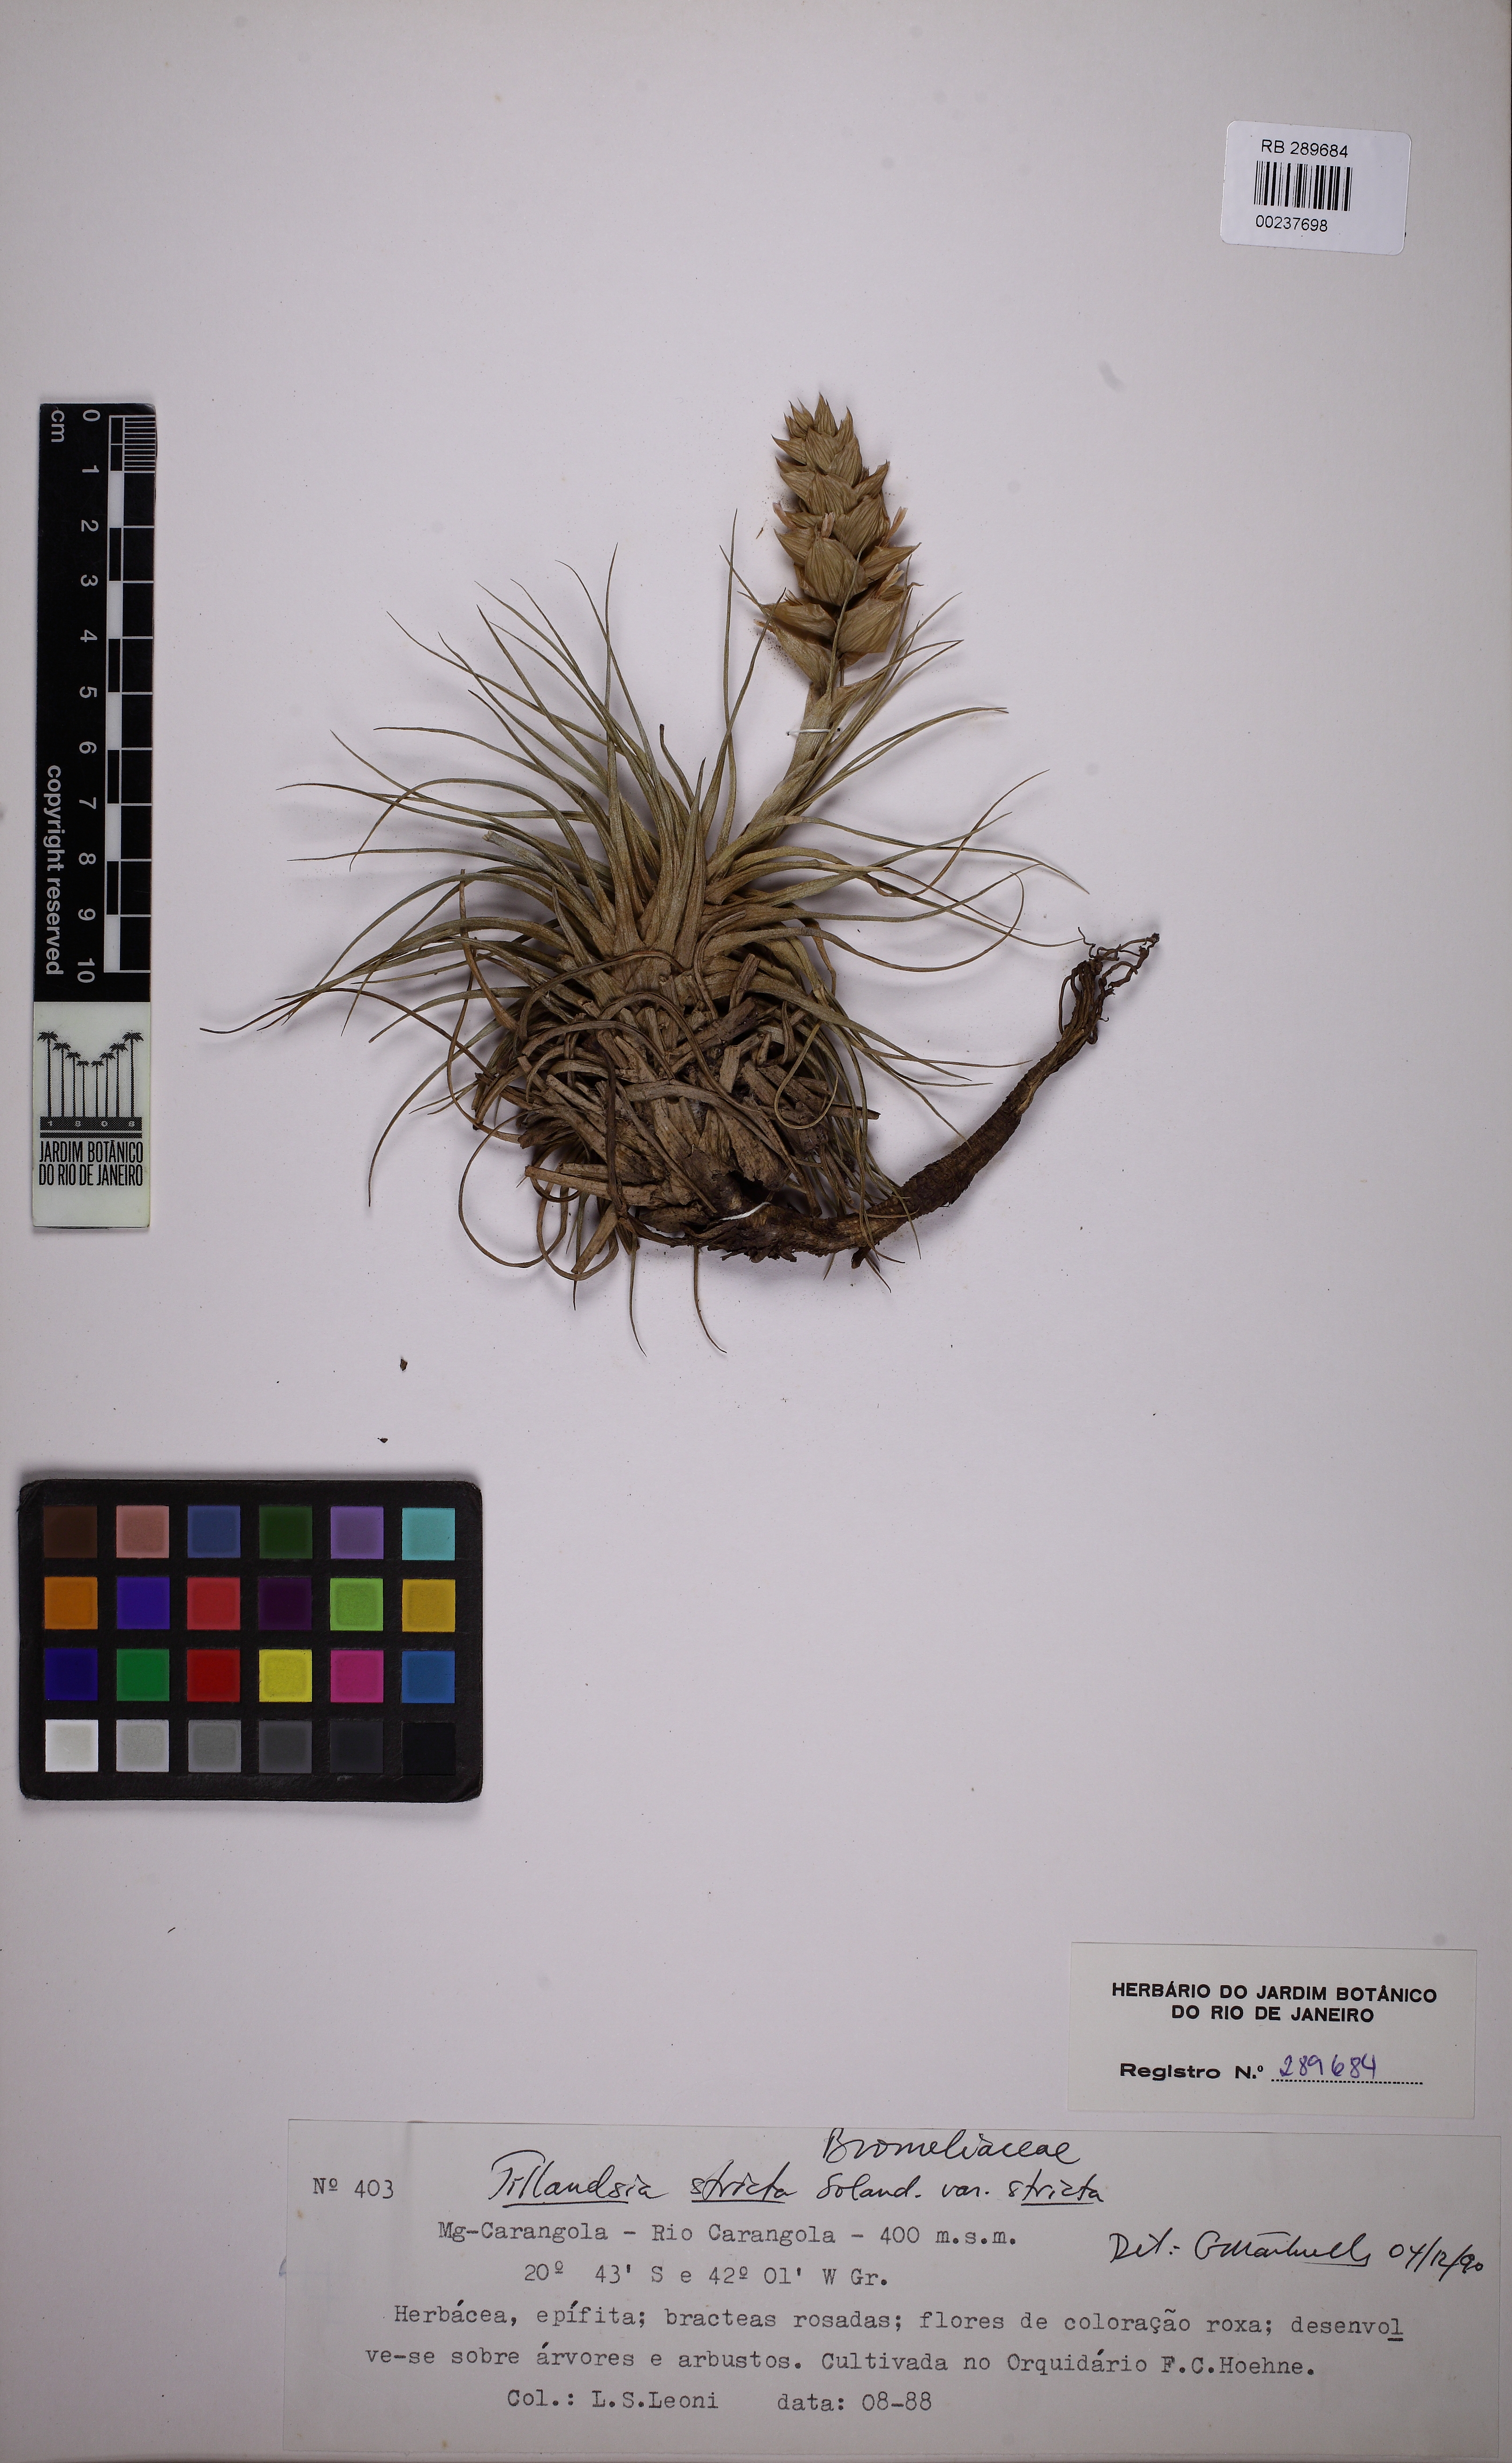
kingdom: Plantae
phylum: Tracheophyta
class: Liliopsida
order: Poales
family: Bromeliaceae
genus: Tillandsia
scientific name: Tillandsia stricta
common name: Airplant
